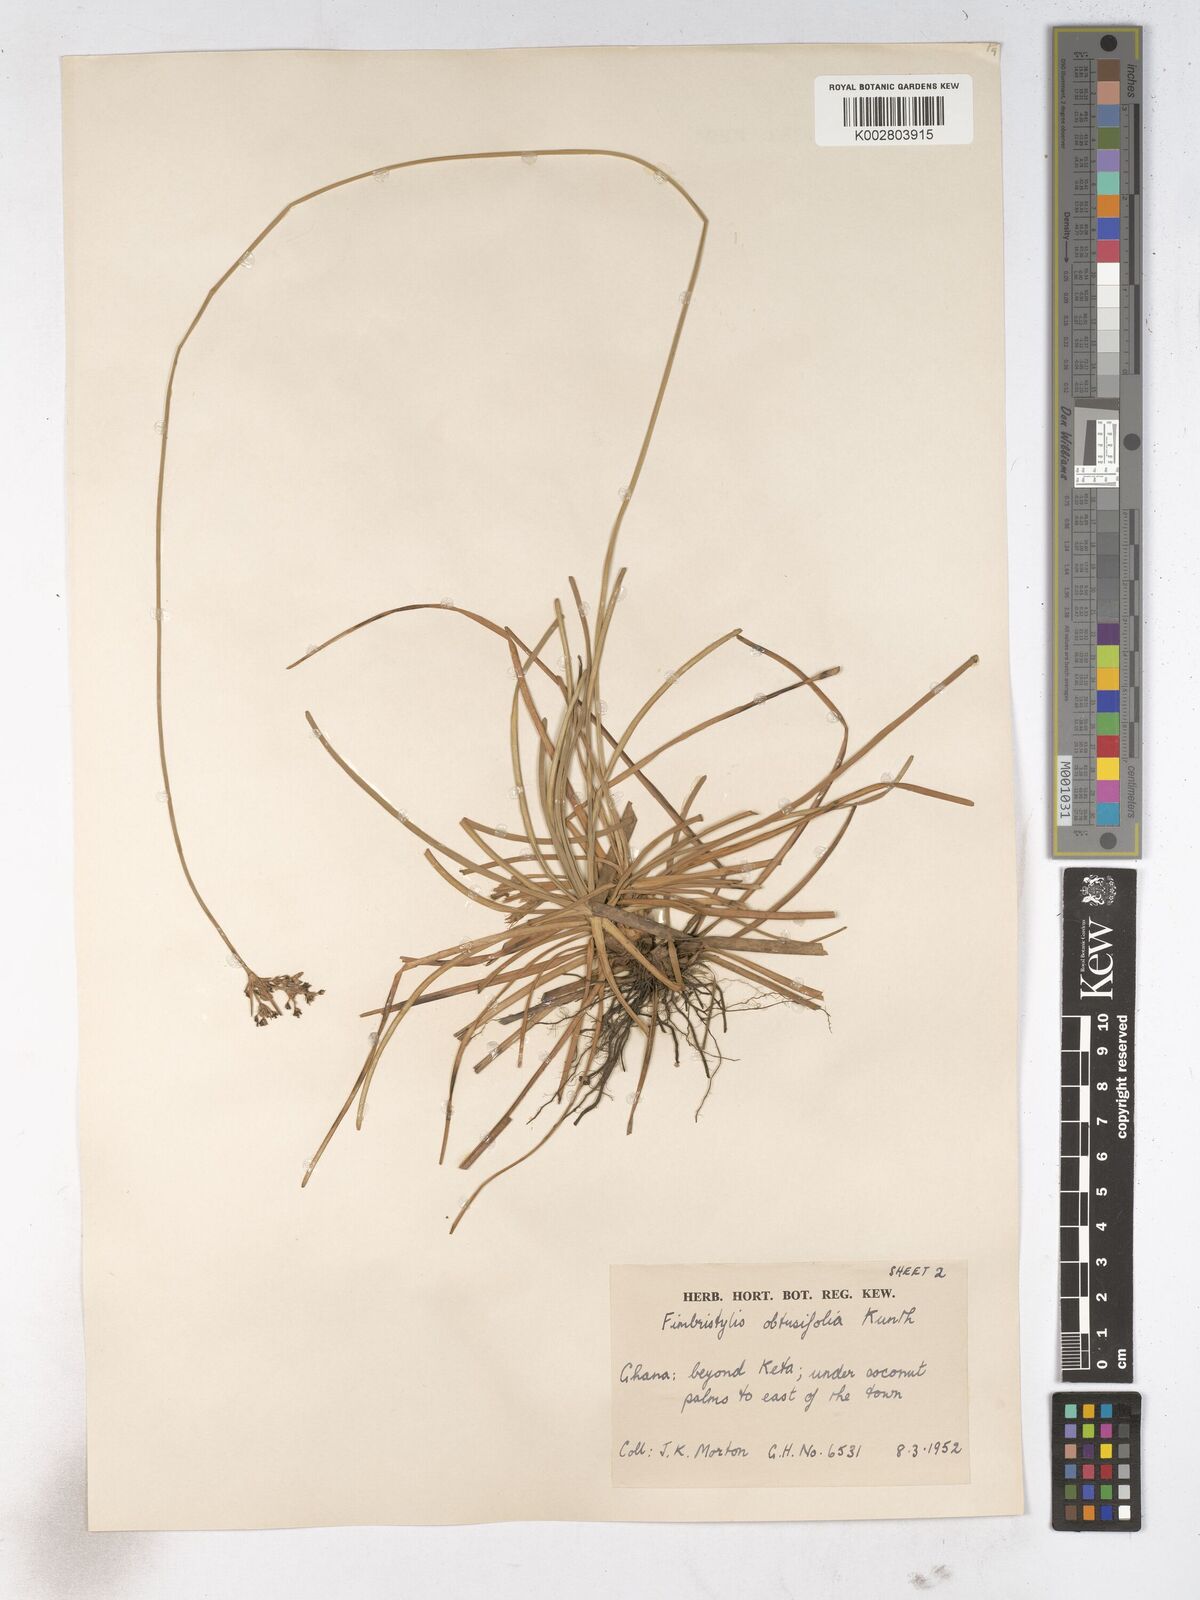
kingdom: Plantae
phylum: Tracheophyta
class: Liliopsida
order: Poales
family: Cyperaceae
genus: Fimbristylis
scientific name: Fimbristylis cymosa
